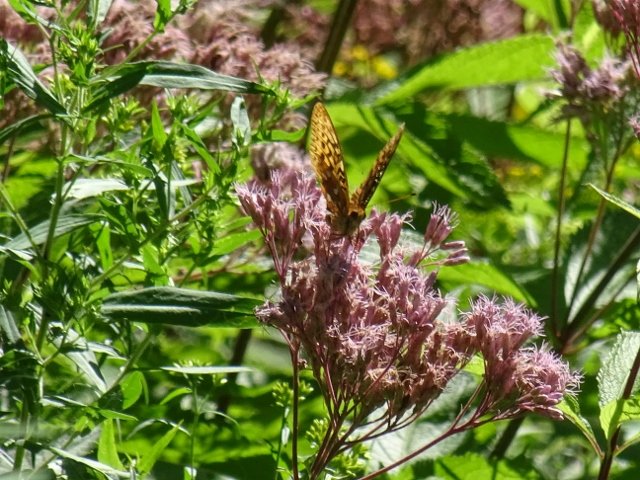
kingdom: Animalia
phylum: Arthropoda
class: Insecta
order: Lepidoptera
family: Nymphalidae
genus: Speyeria
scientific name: Speyeria
